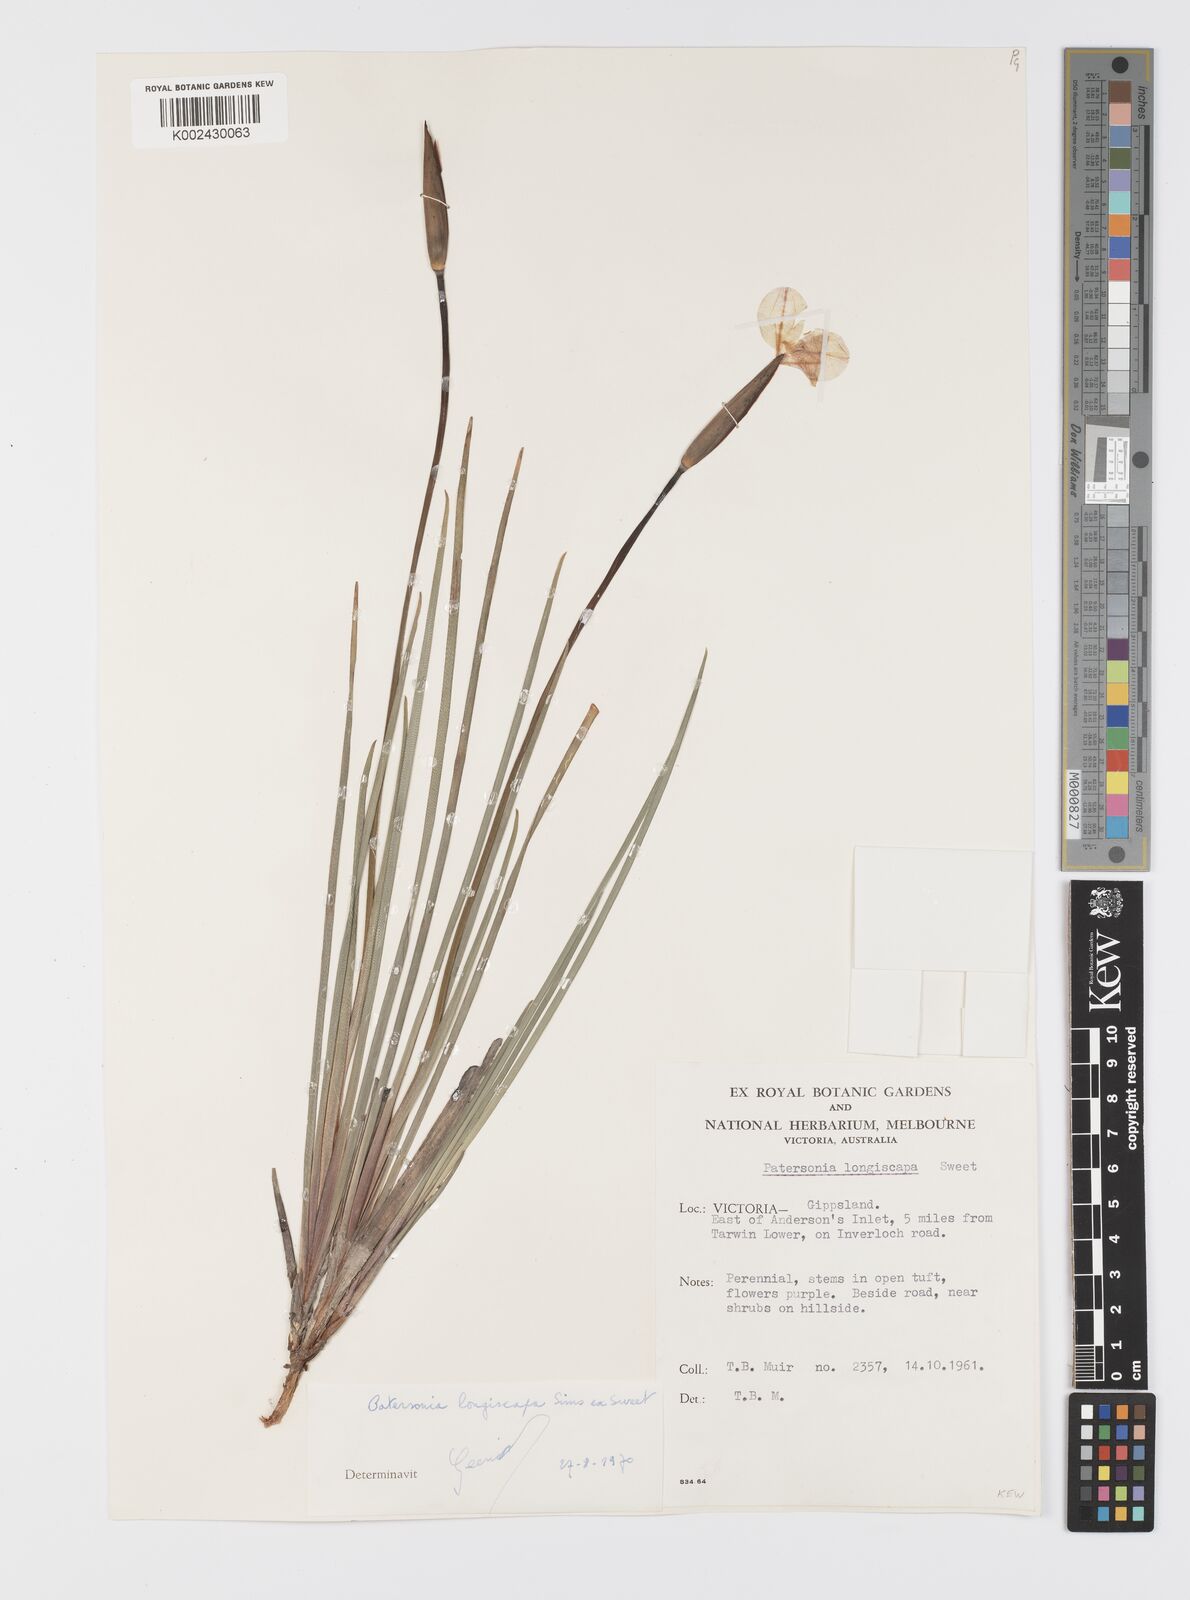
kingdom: Plantae
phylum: Tracheophyta
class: Liliopsida
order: Asparagales
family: Iridaceae
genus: Patersonia
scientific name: Patersonia occidentalis
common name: Long purple-flag
